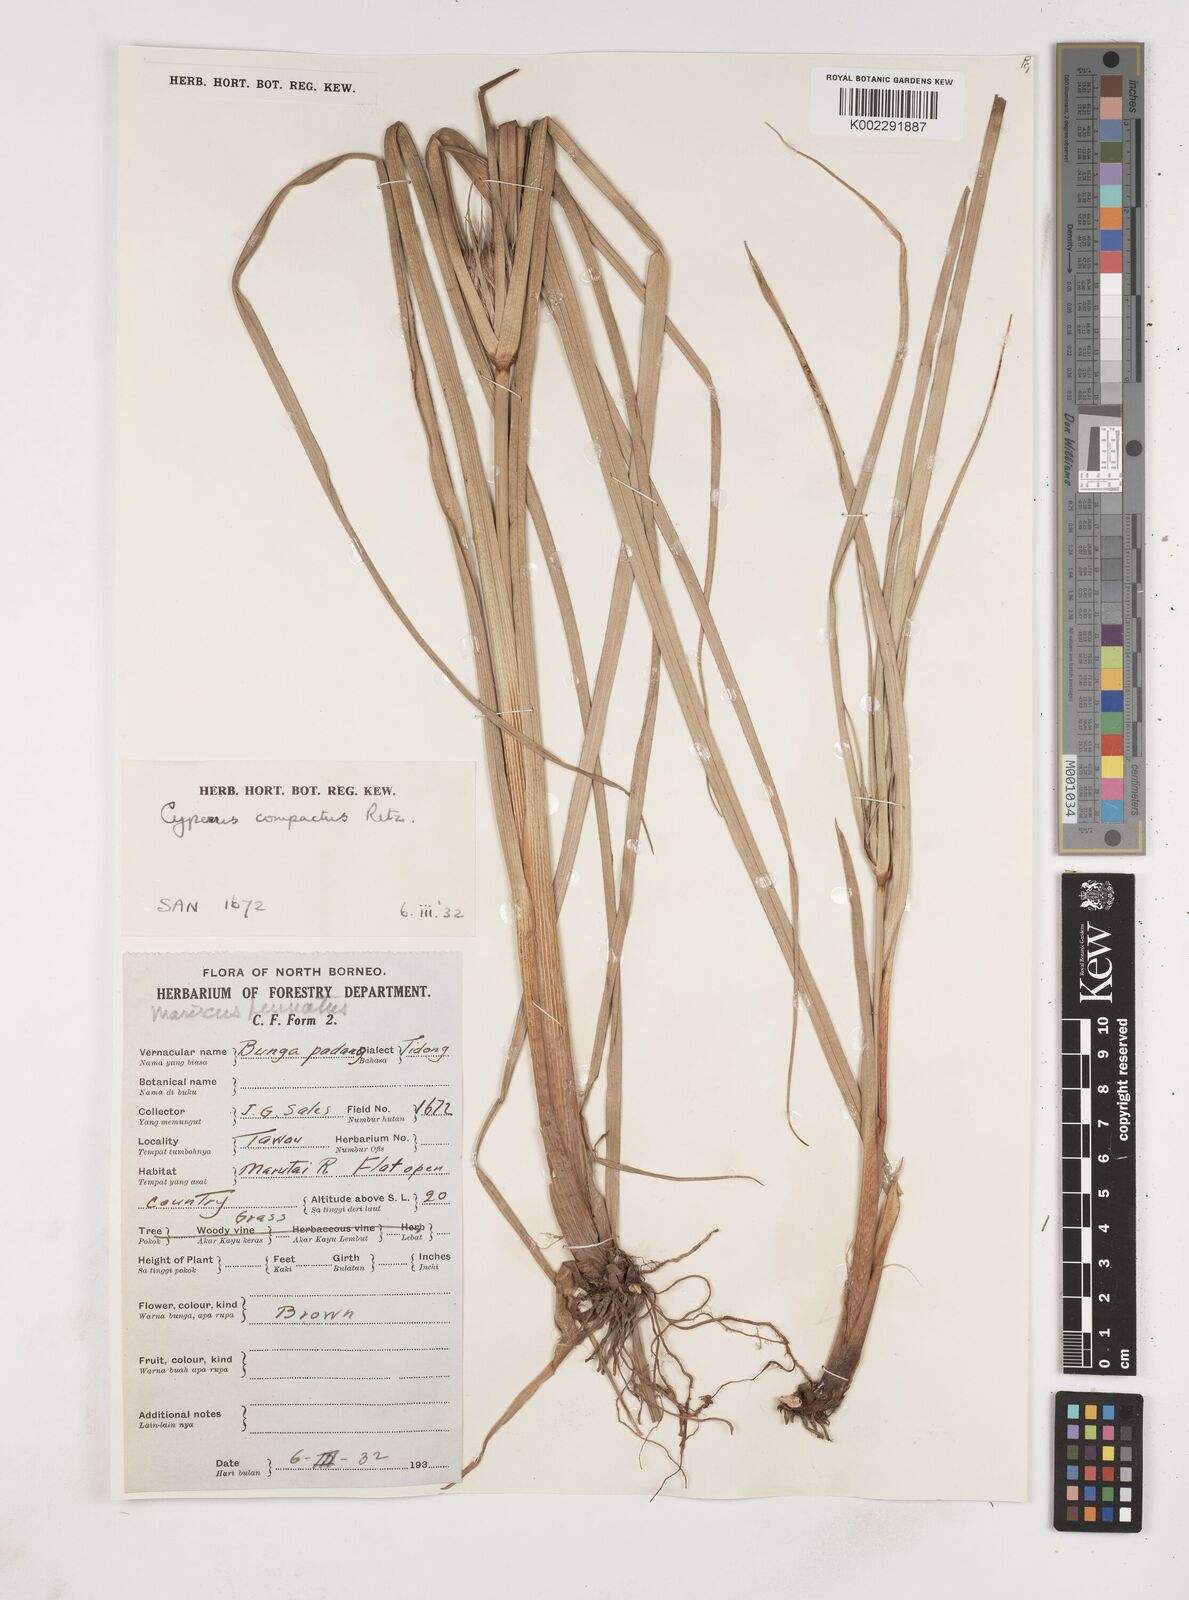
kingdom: Plantae
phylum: Tracheophyta
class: Liliopsida
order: Poales
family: Cyperaceae
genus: Cyperus
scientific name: Cyperus compactus
